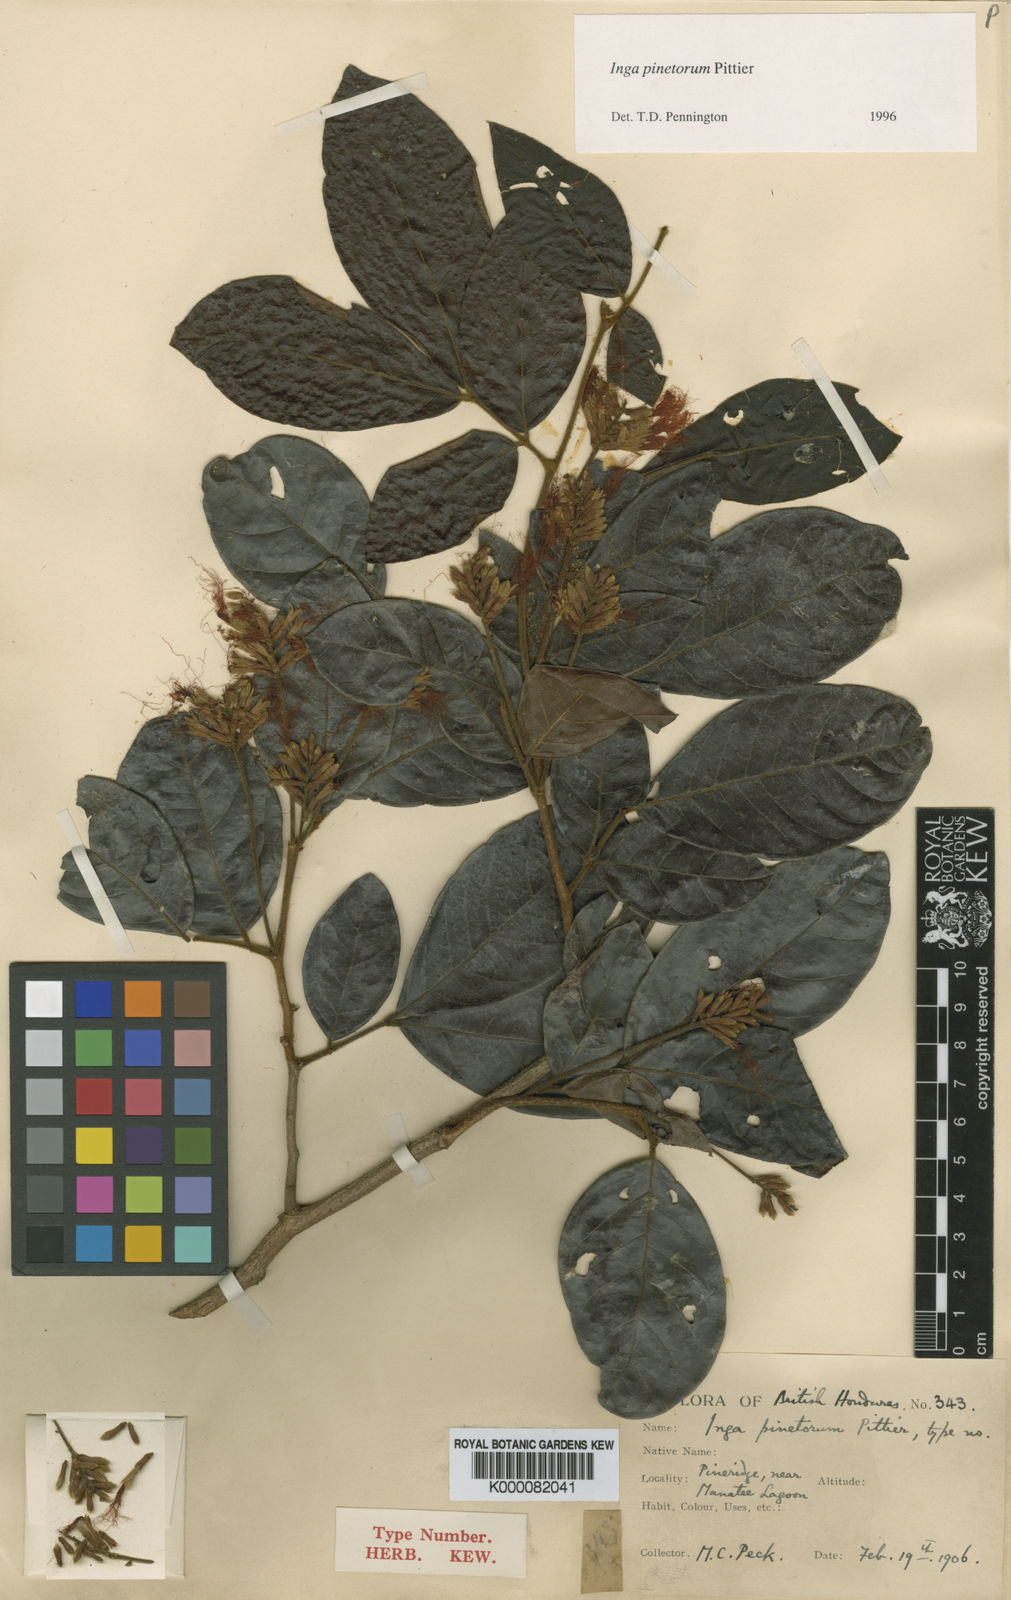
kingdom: Plantae
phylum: Tracheophyta
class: Magnoliopsida
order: Fabales
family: Fabaceae
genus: Inga
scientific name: Inga pinetorum
